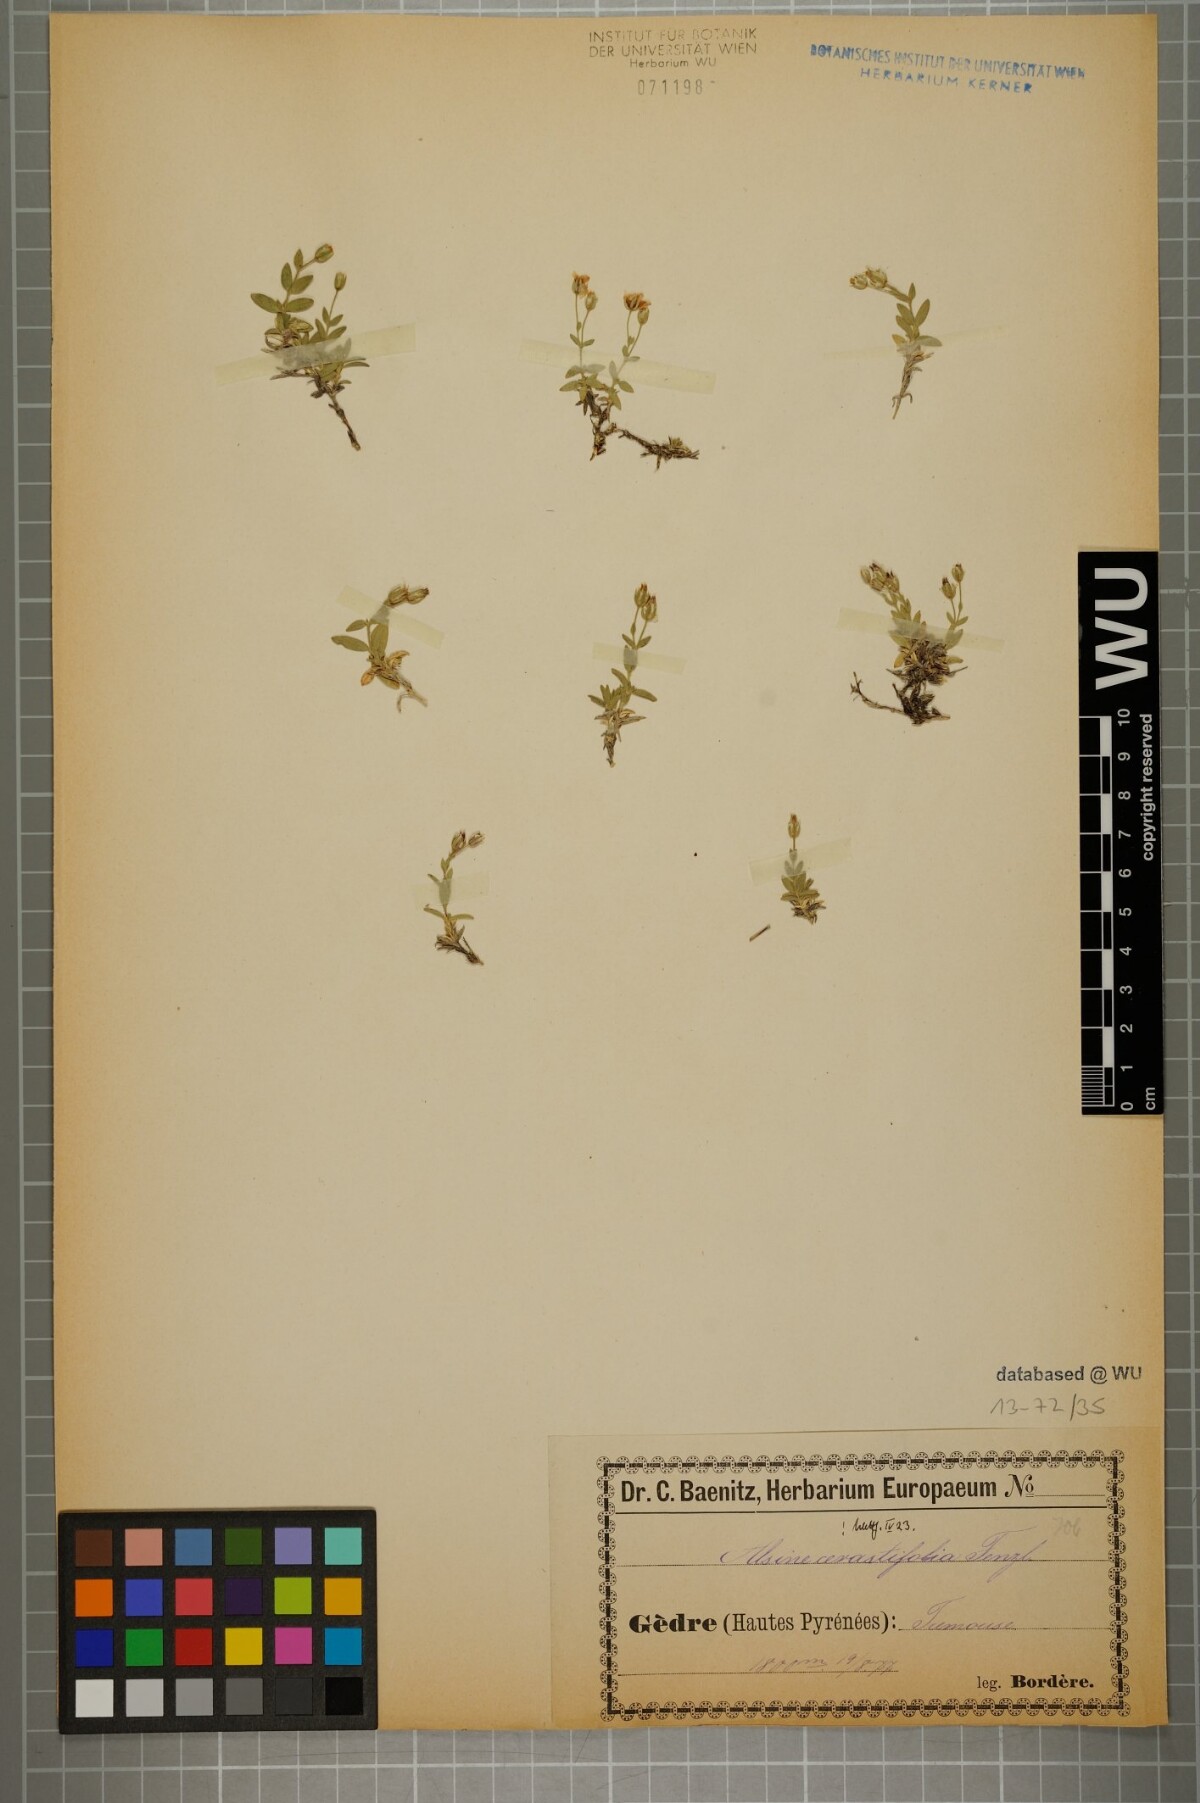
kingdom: Plantae
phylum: Tracheophyta
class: Magnoliopsida
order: Caryophyllales
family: Caryophyllaceae
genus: Facchinia
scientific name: Facchinia cerastiifolia
